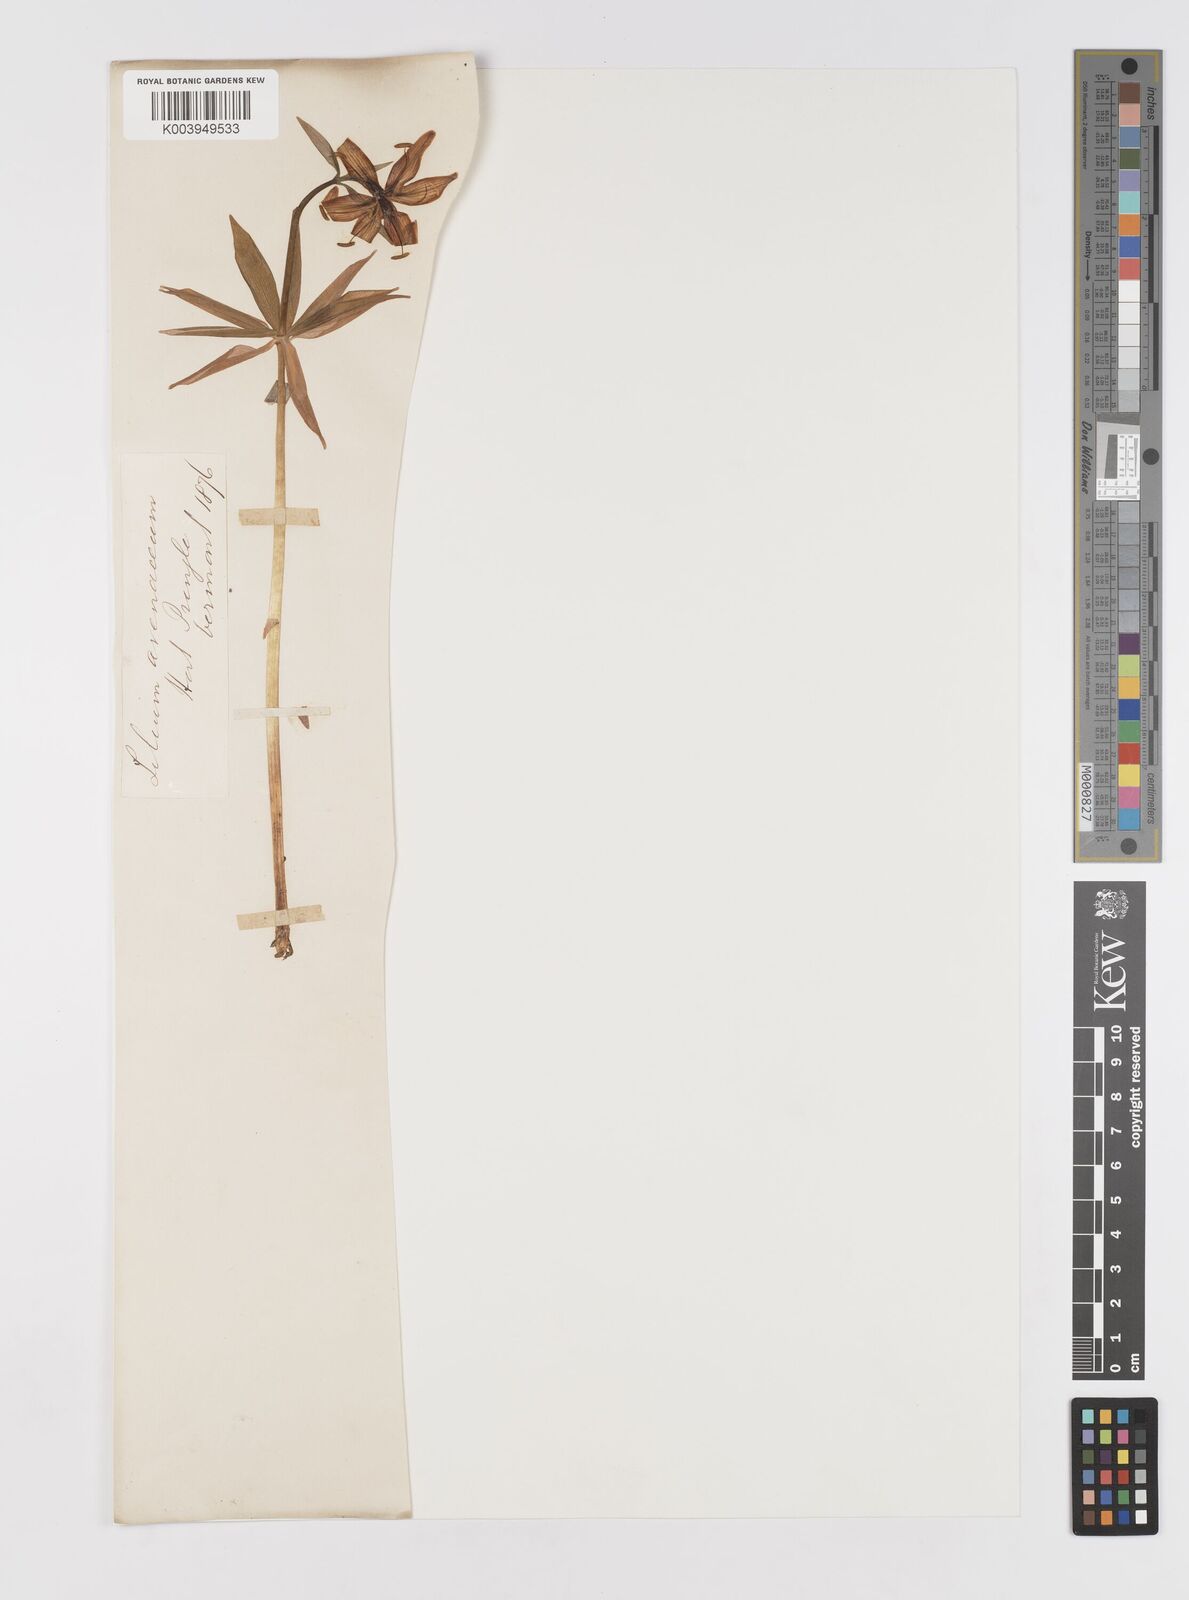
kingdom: Plantae
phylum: Tracheophyta
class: Liliopsida
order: Liliales
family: Liliaceae
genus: Lilium
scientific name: Lilium medeoloides
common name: Wheel lily
